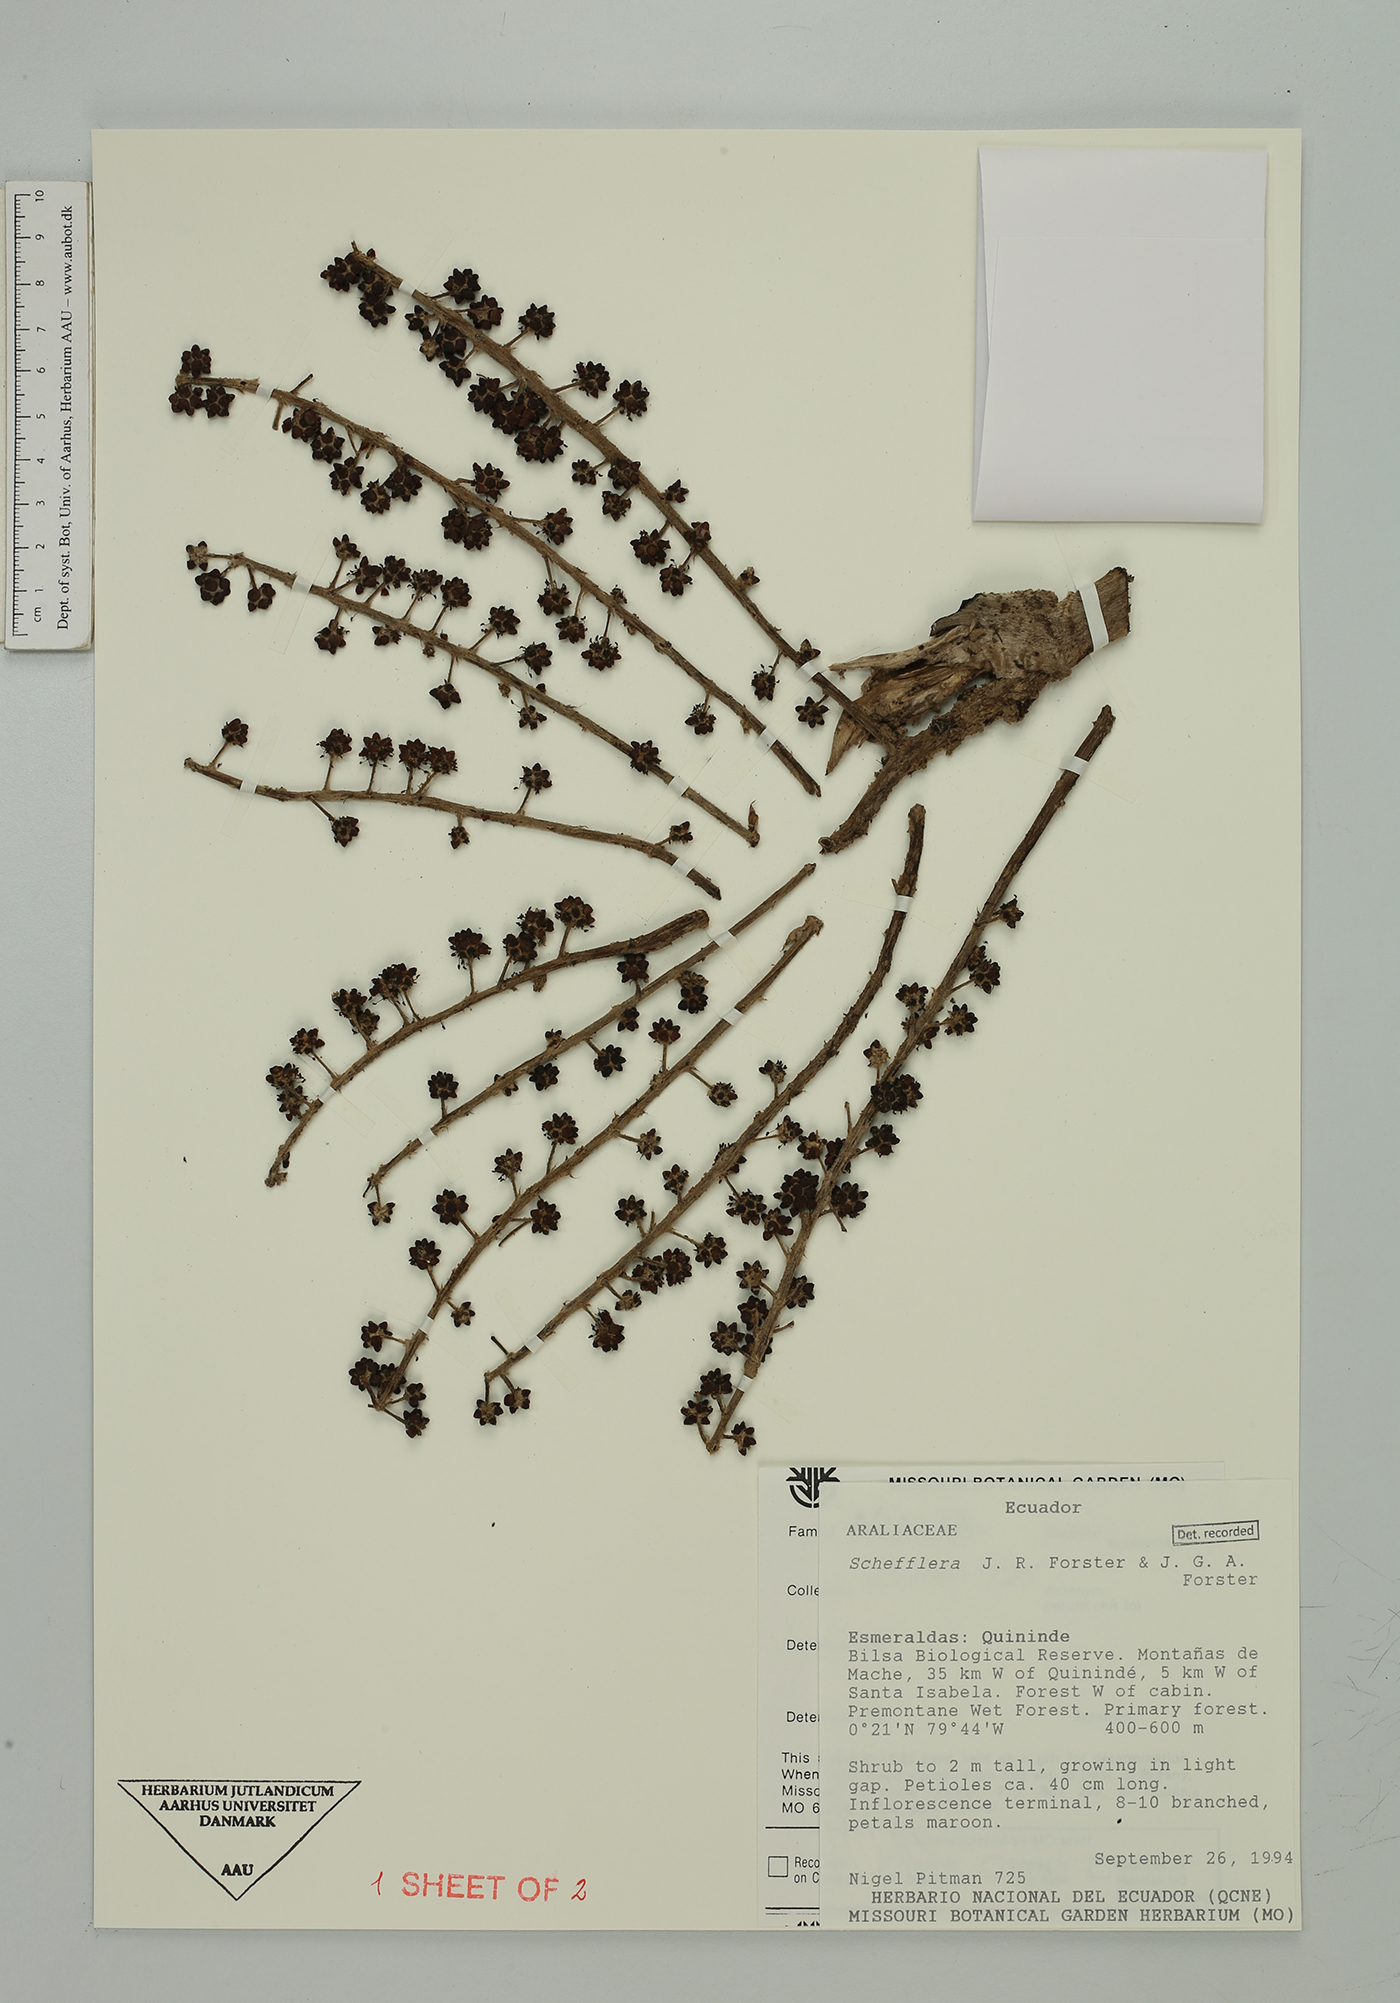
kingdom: Plantae
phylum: Tracheophyta
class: Magnoliopsida
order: Apiales
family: Araliaceae
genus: Sciodaphyllum
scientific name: Sciodaphyllum
